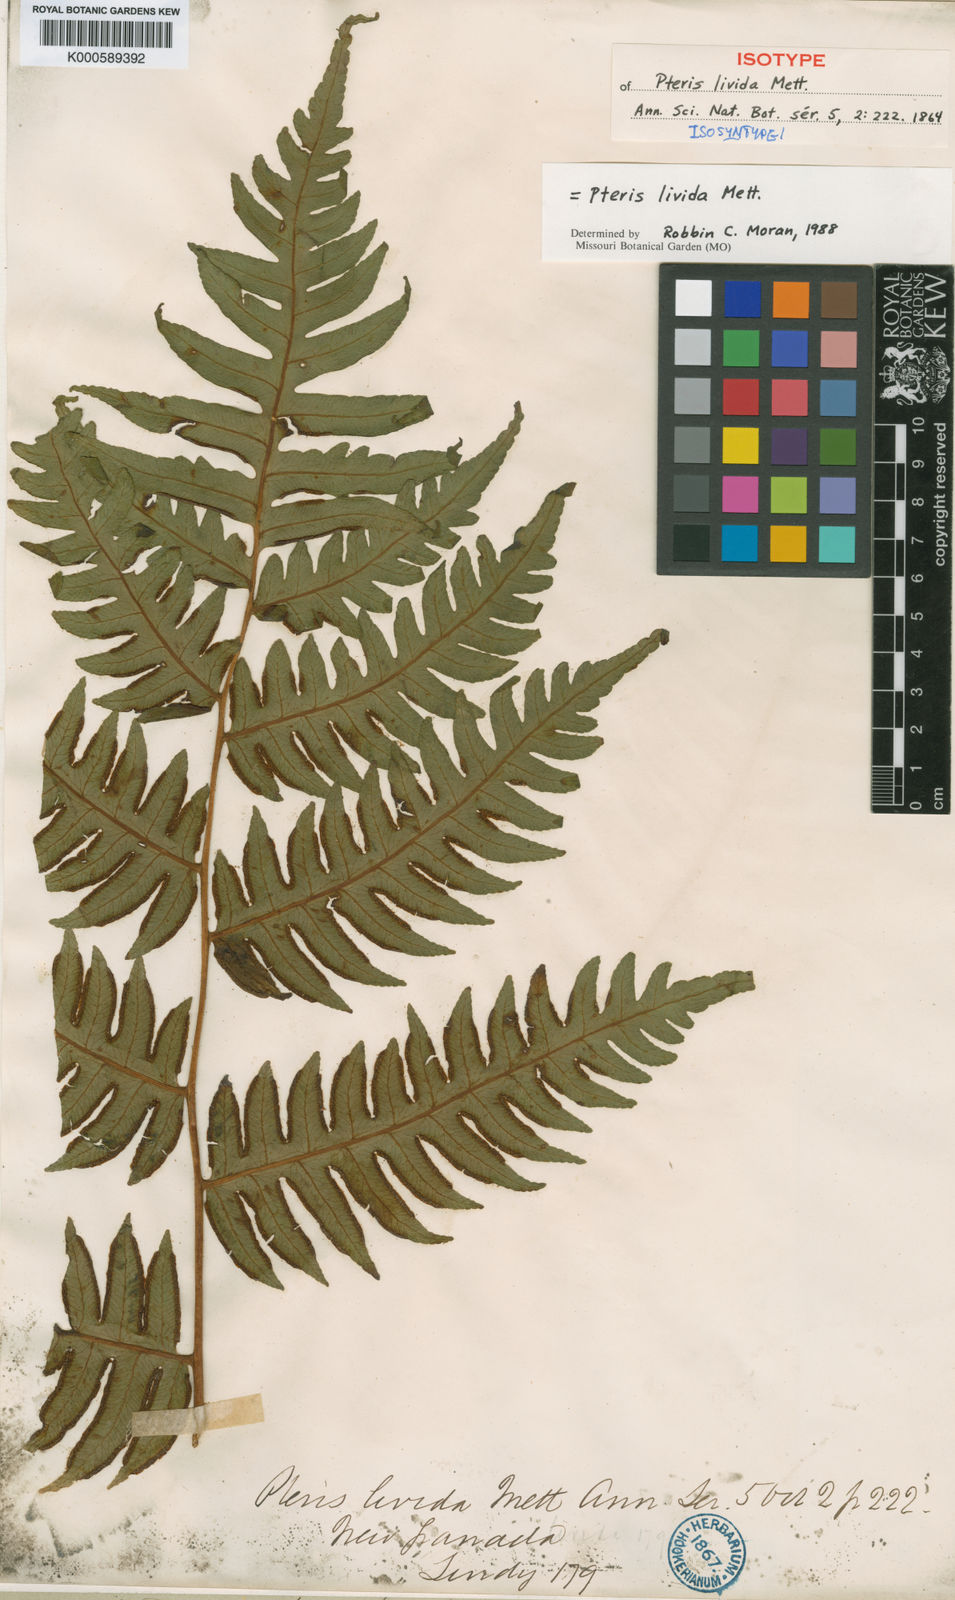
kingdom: Plantae
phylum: Tracheophyta
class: Polypodiopsida
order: Polypodiales
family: Pteridaceae
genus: Pteris
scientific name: Pteris livida
